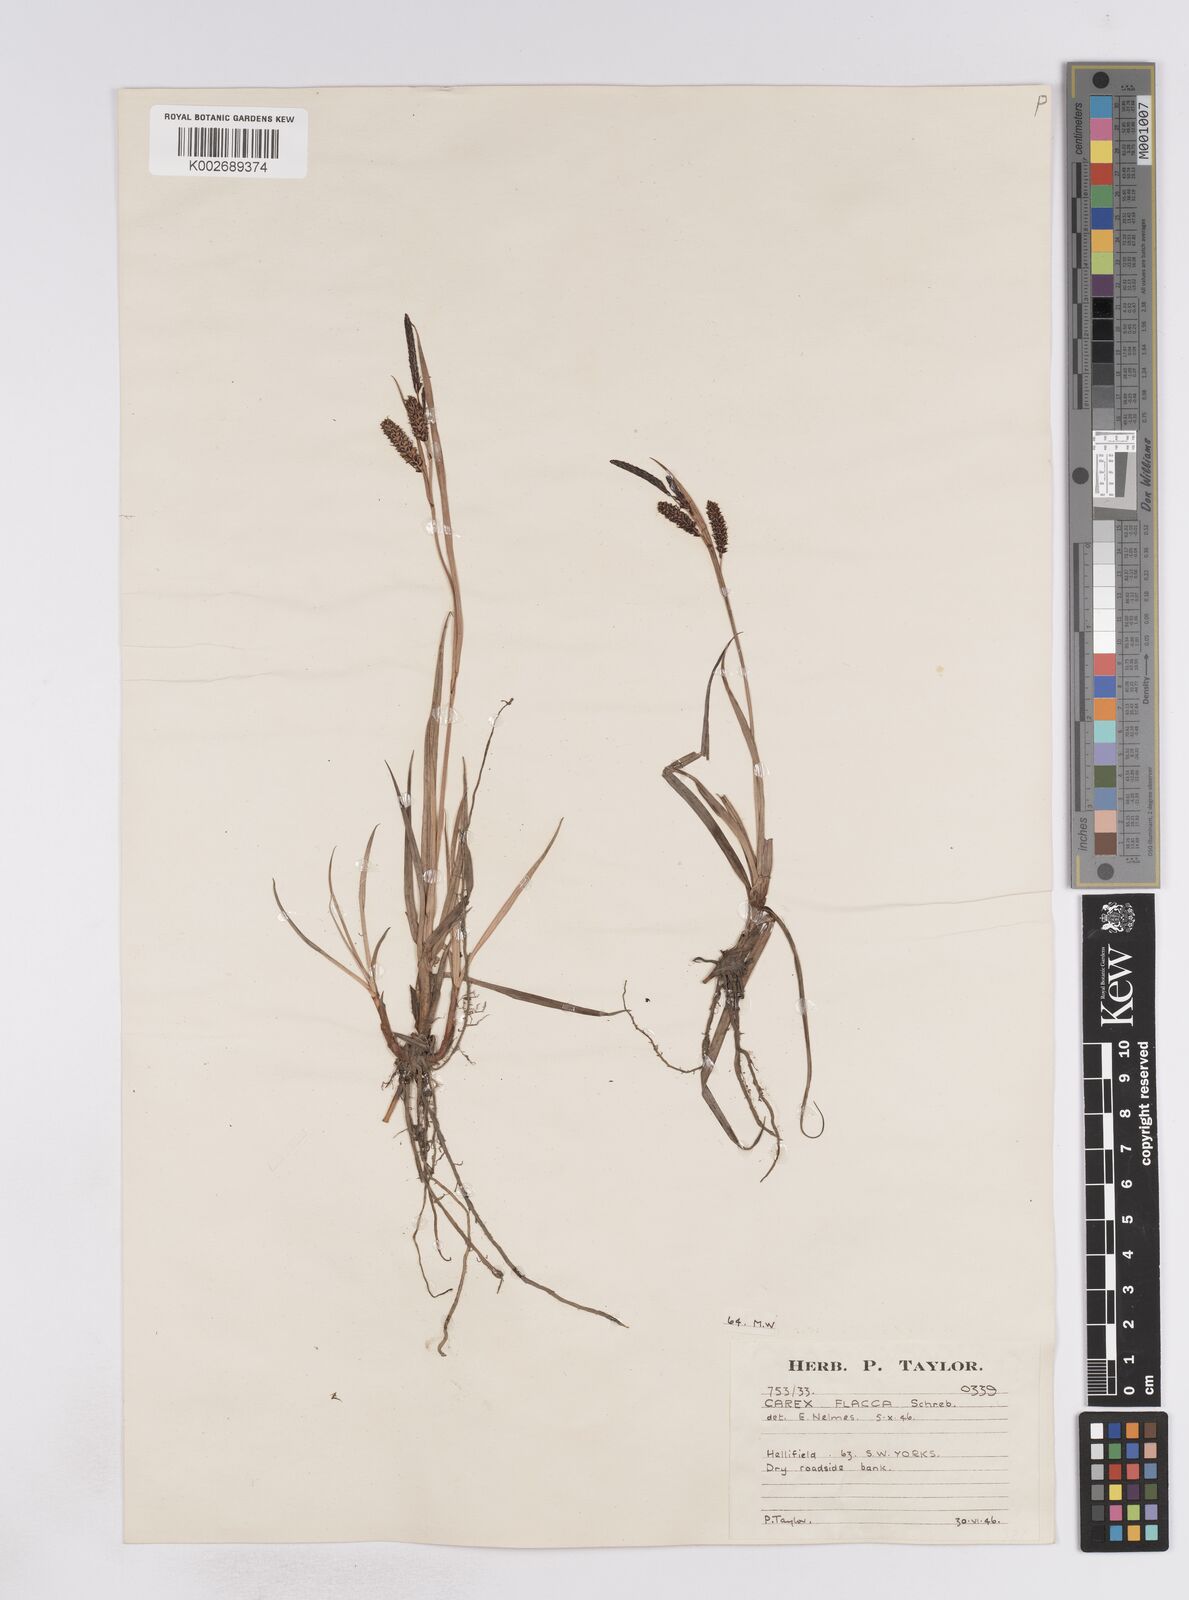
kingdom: Plantae
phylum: Tracheophyta
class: Liliopsida
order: Poales
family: Cyperaceae
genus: Carex
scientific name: Carex flacca
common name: Glaucous sedge
